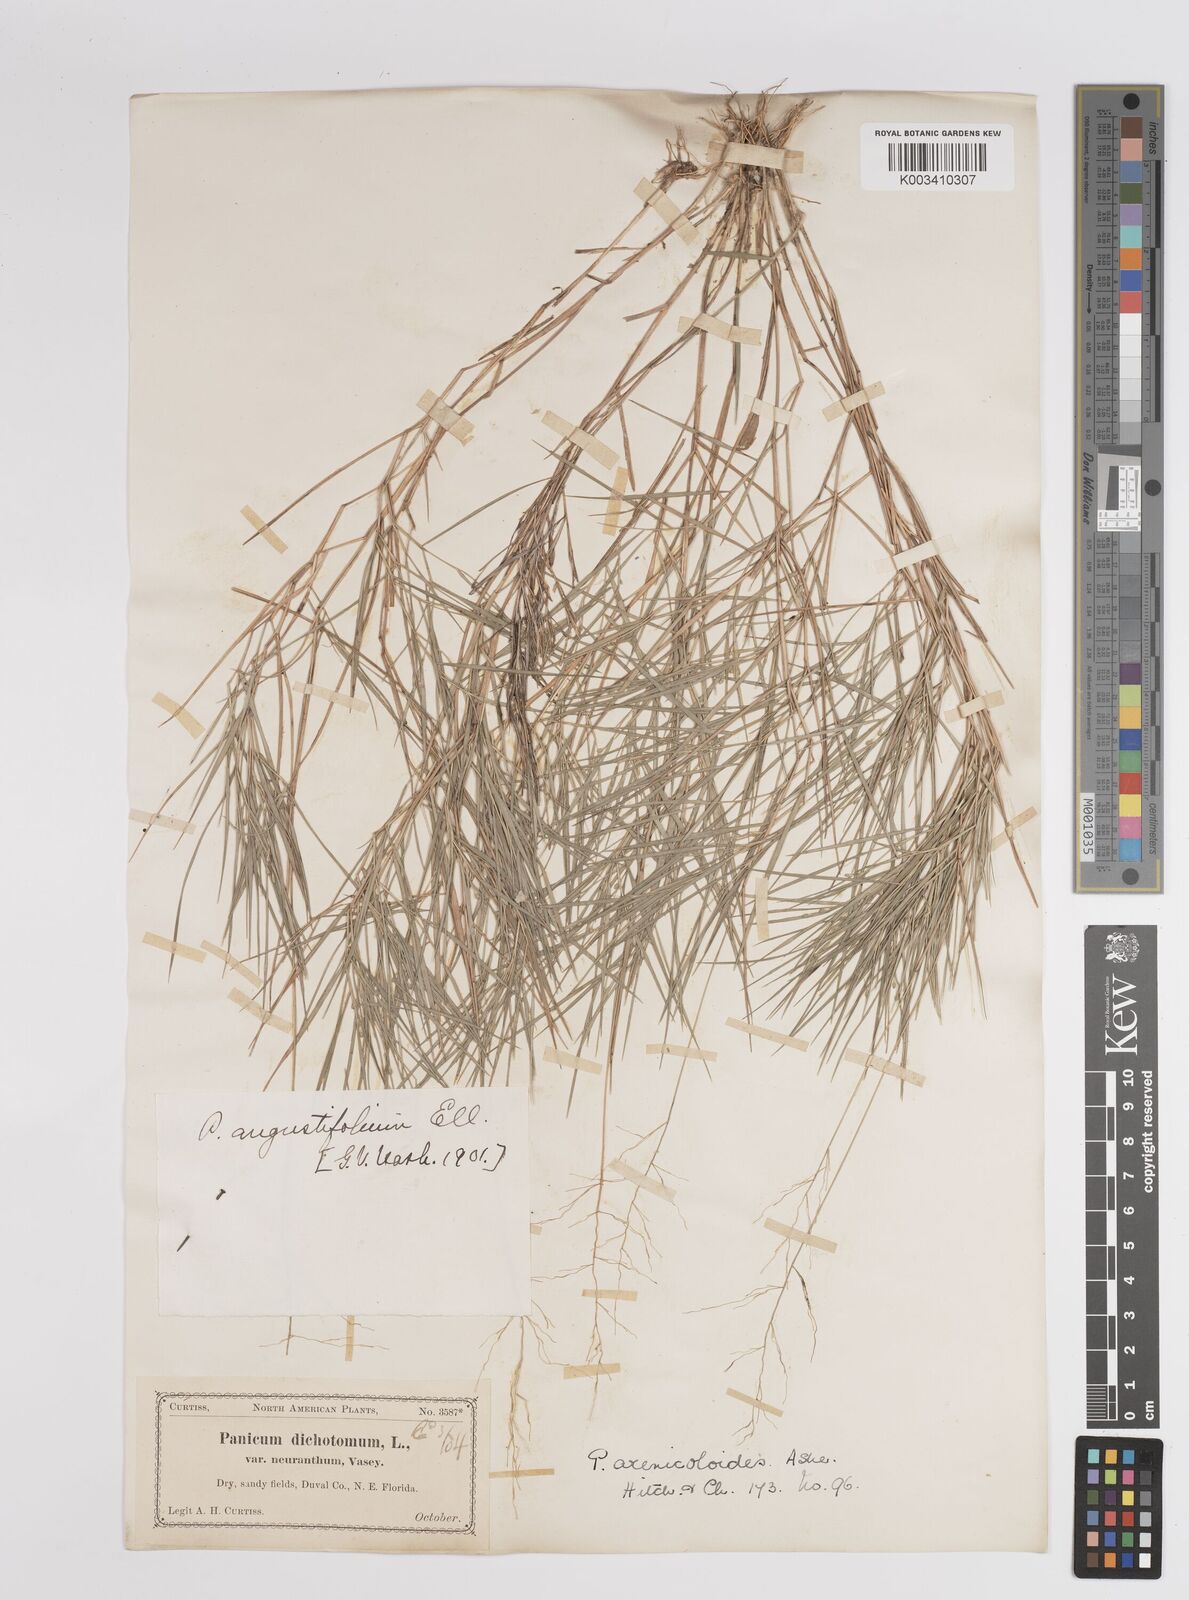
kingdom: Plantae
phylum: Tracheophyta
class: Liliopsida
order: Poales
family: Poaceae
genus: Dichanthelium
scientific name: Dichanthelium aciculare
